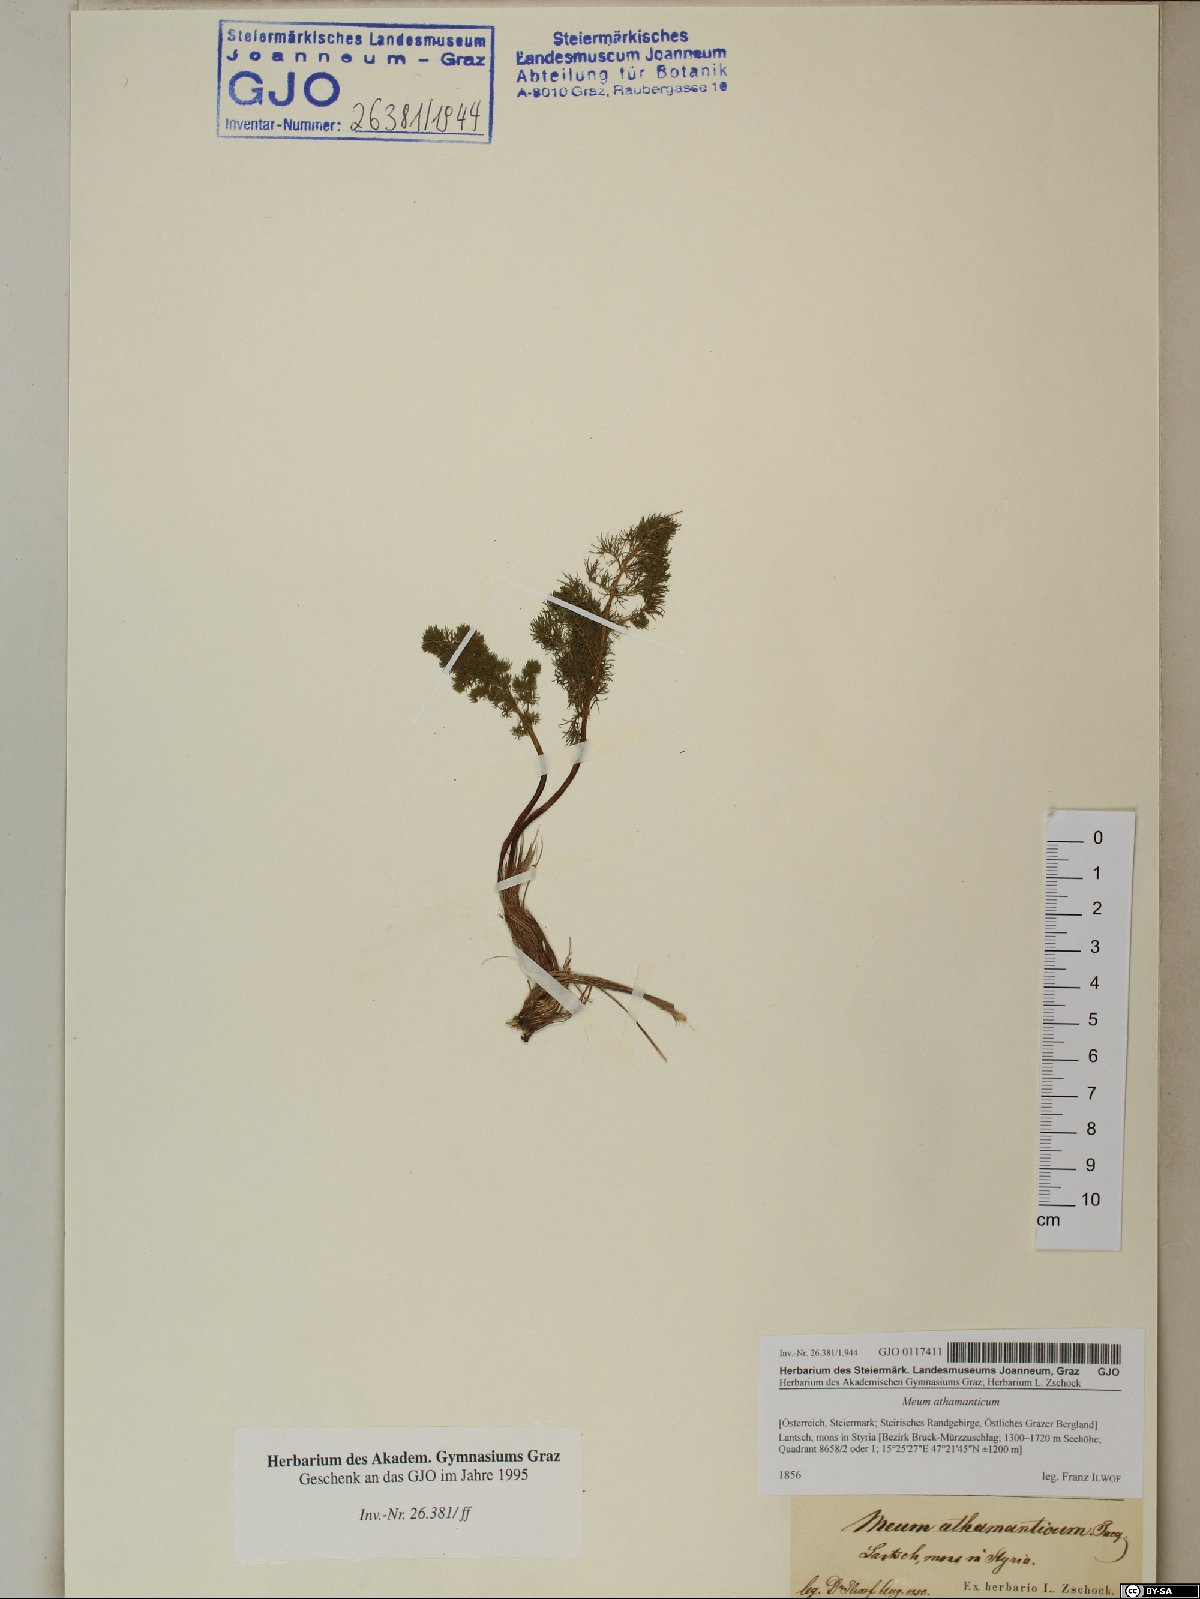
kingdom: Plantae
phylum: Tracheophyta
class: Magnoliopsida
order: Apiales
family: Apiaceae
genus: Meum
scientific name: Meum athamanticum
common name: Spignel
